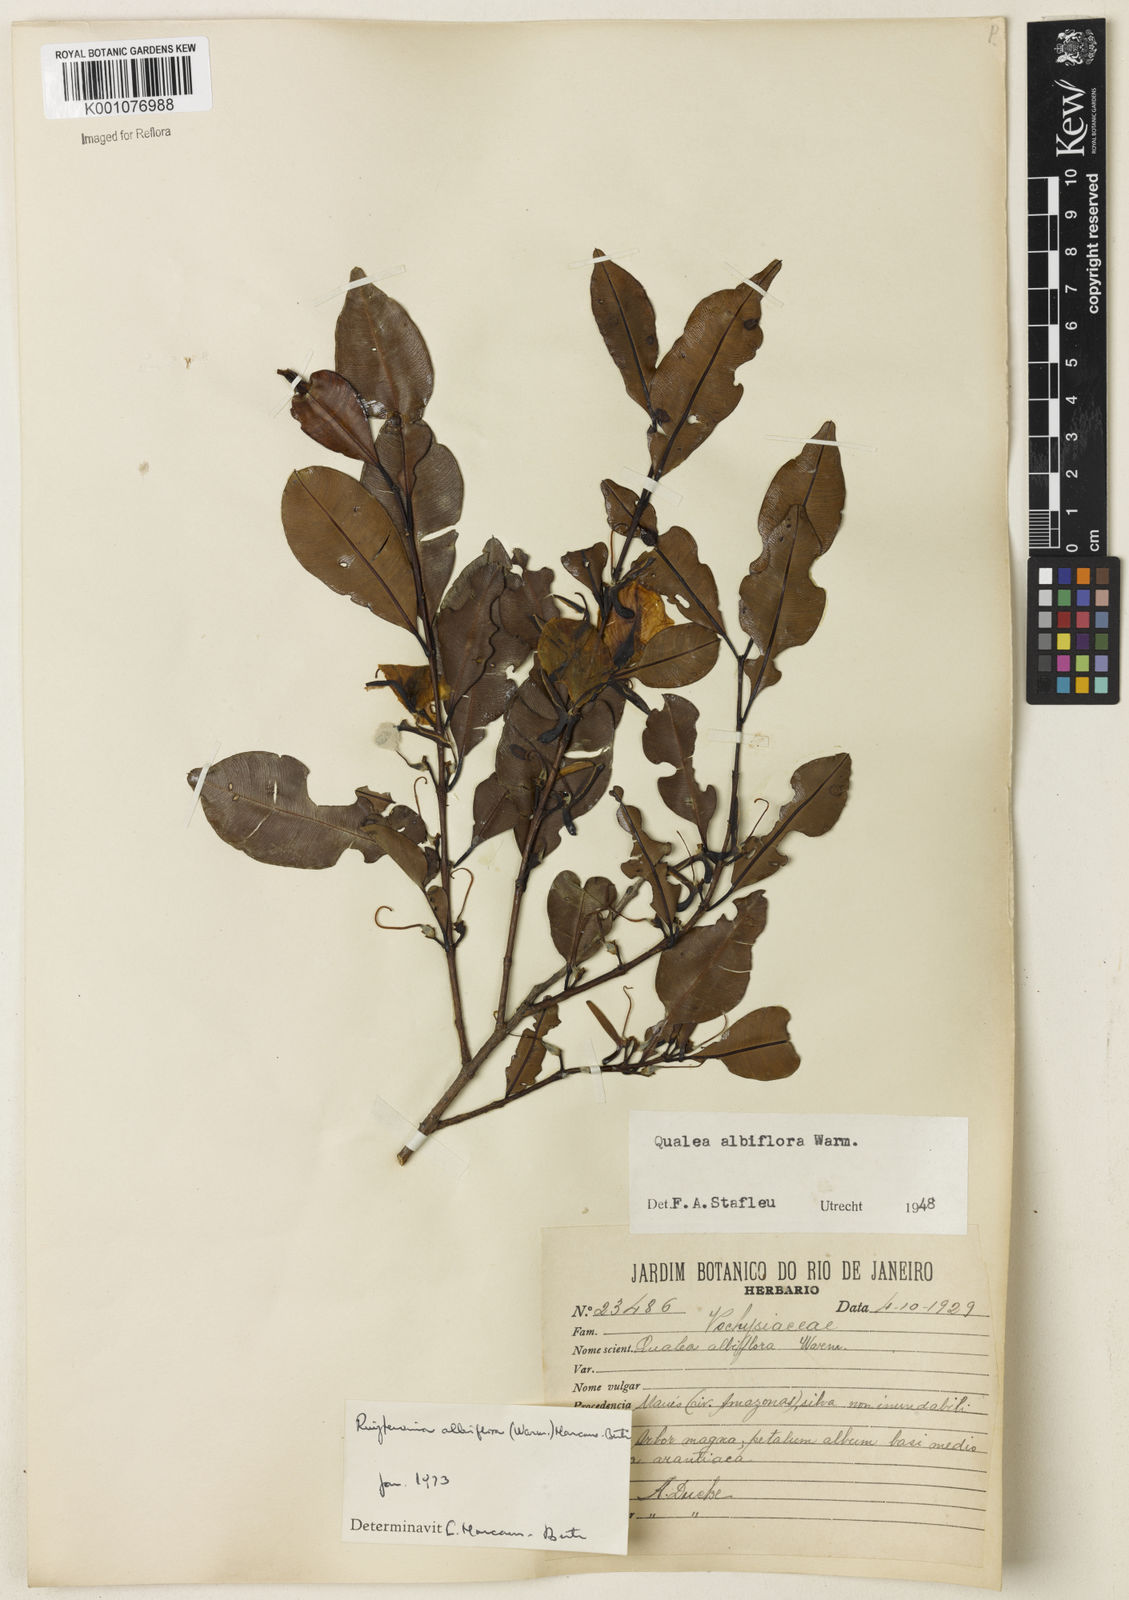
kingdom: Plantae
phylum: Tracheophyta
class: Magnoliopsida
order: Myrtales
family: Vochysiaceae
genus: Ruizterania
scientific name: Ruizterania albiflora
